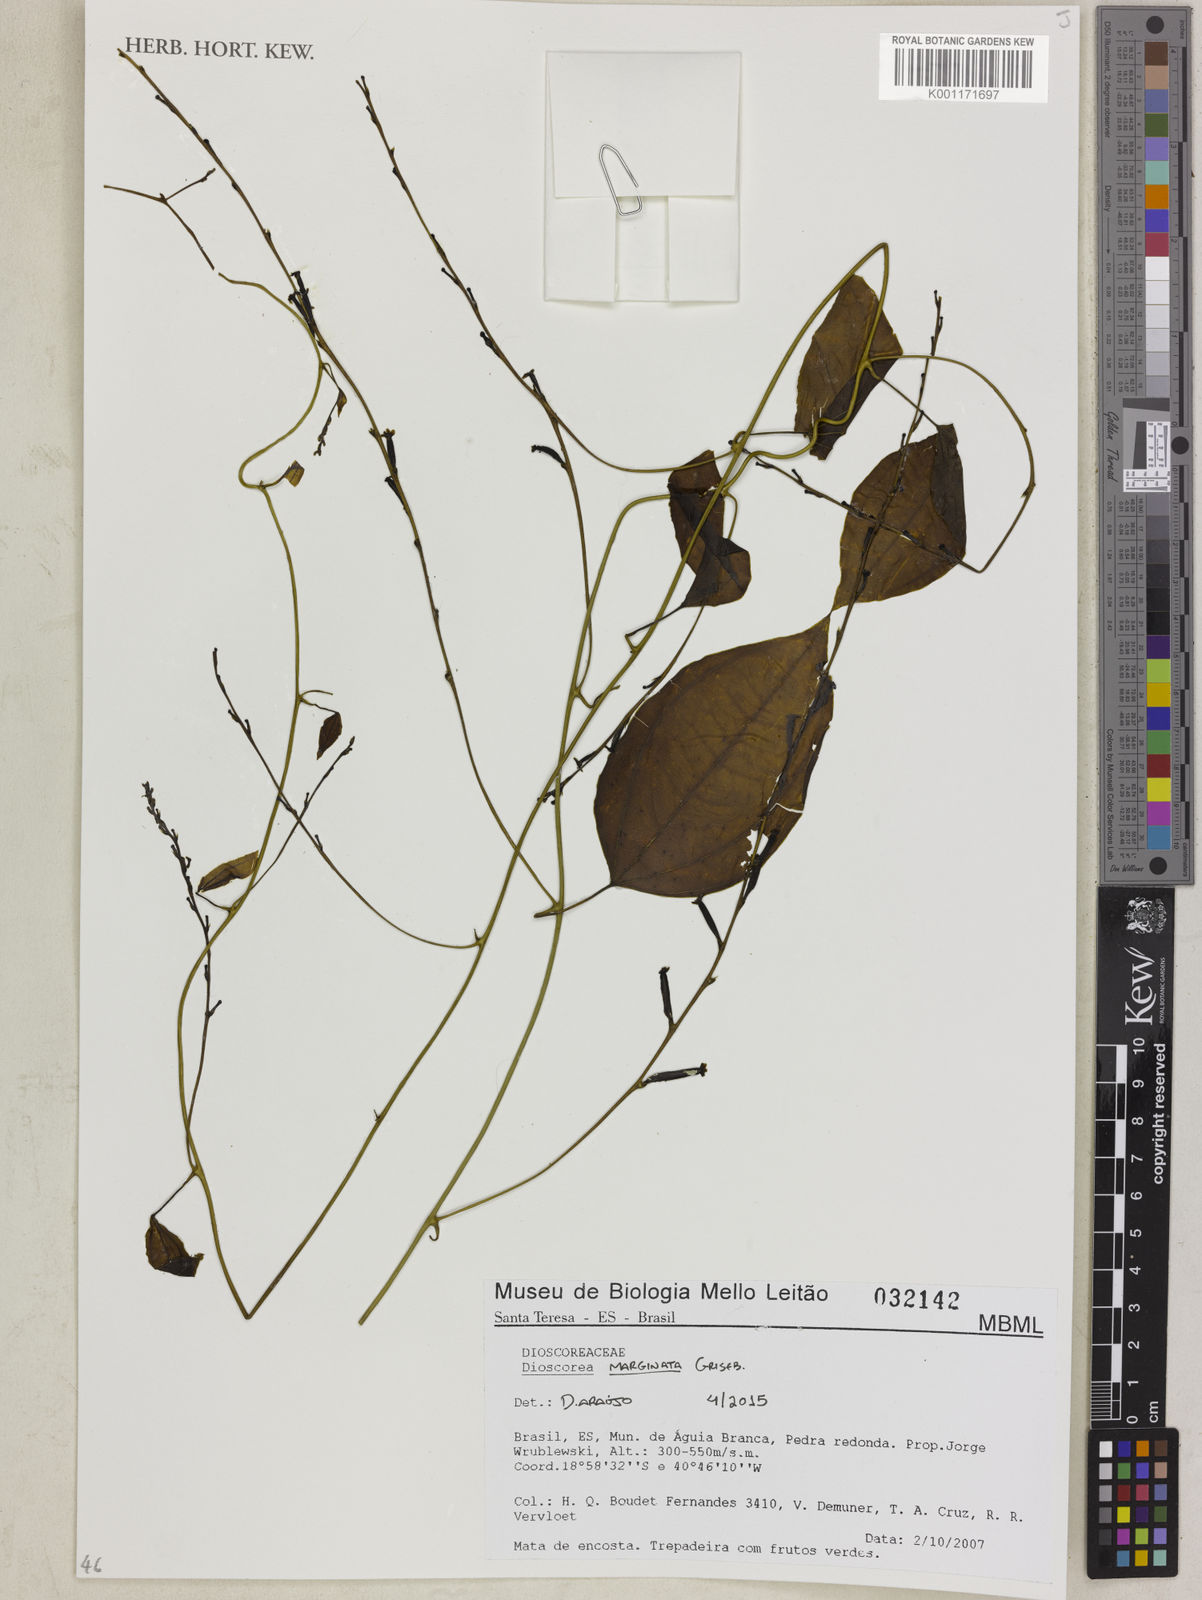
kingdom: Plantae
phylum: Tracheophyta
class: Liliopsida
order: Dioscoreales
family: Dioscoreaceae
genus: Dioscorea
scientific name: Dioscorea marginata
